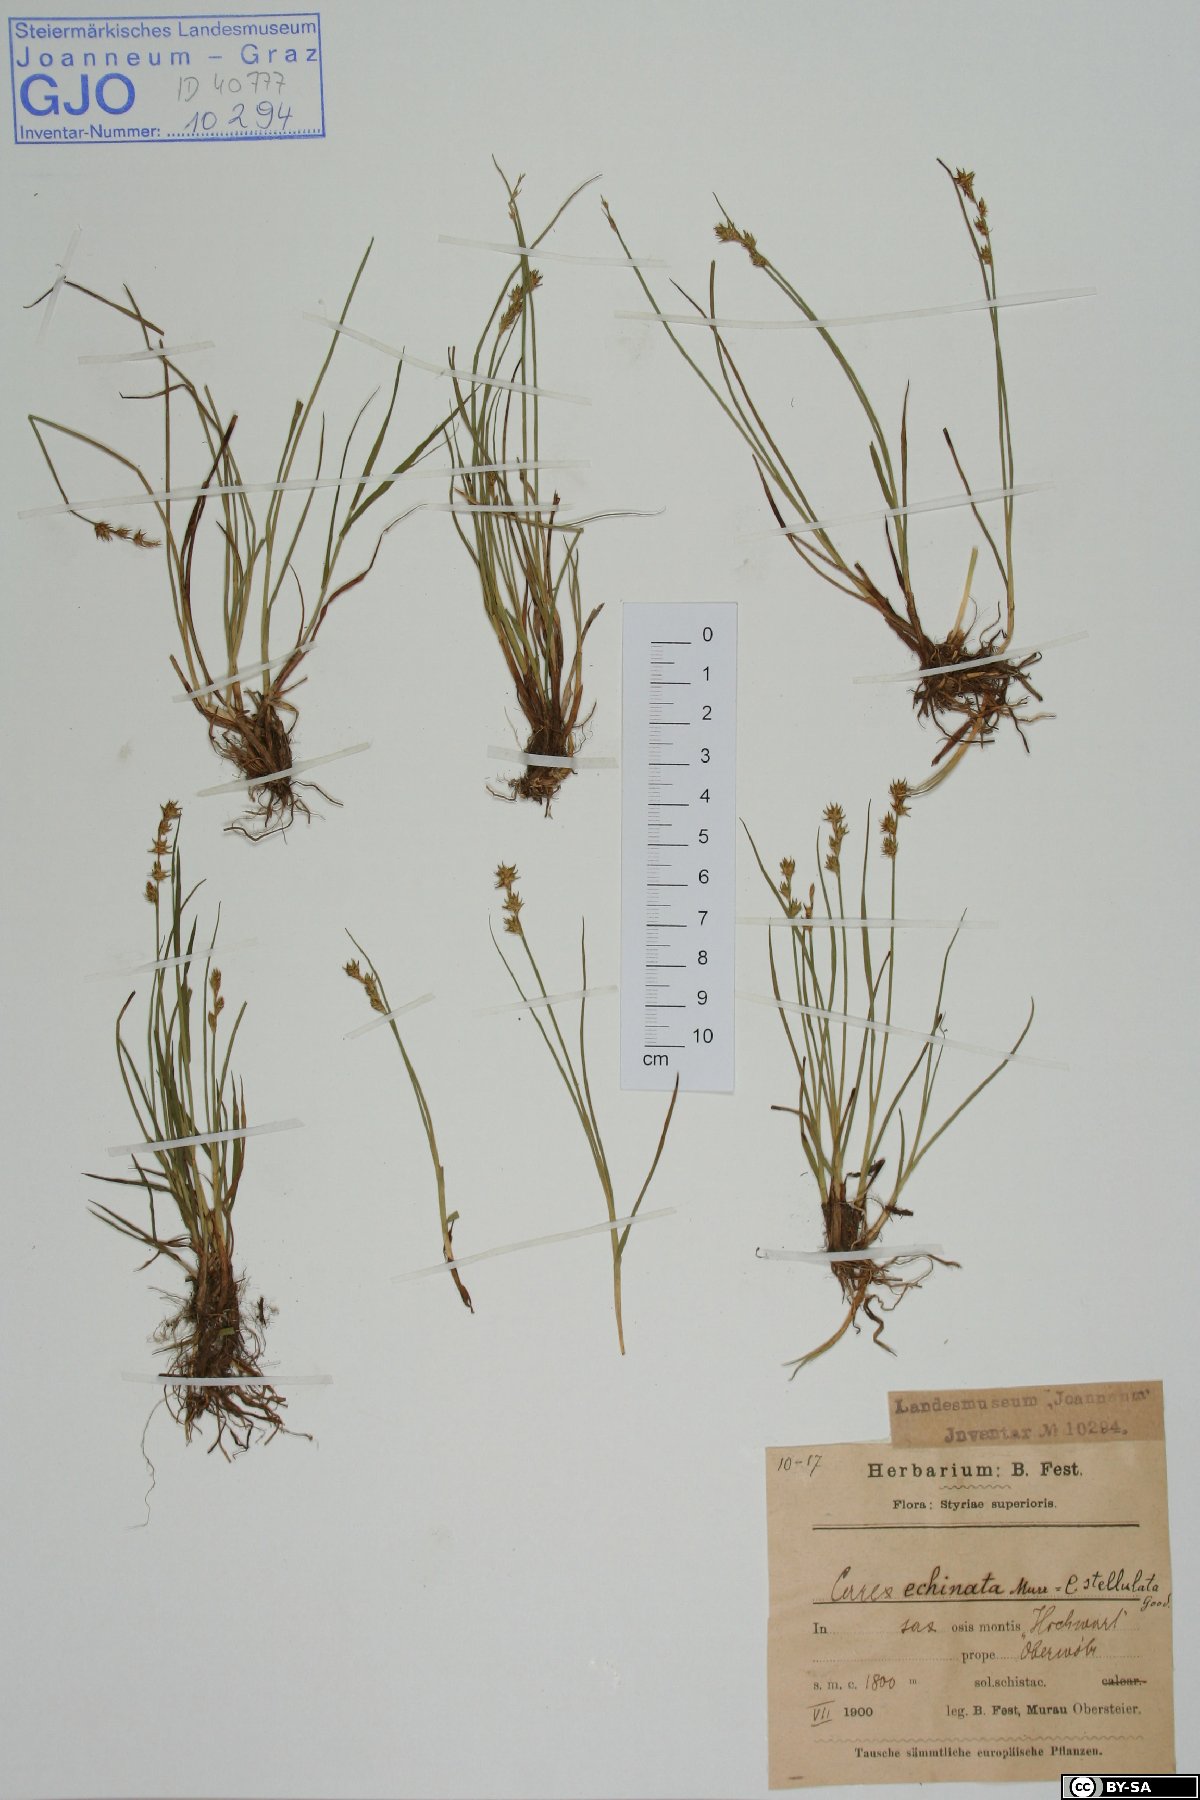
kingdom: Plantae
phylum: Tracheophyta
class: Liliopsida
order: Poales
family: Cyperaceae
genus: Carex
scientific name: Carex echinata
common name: Star sedge
